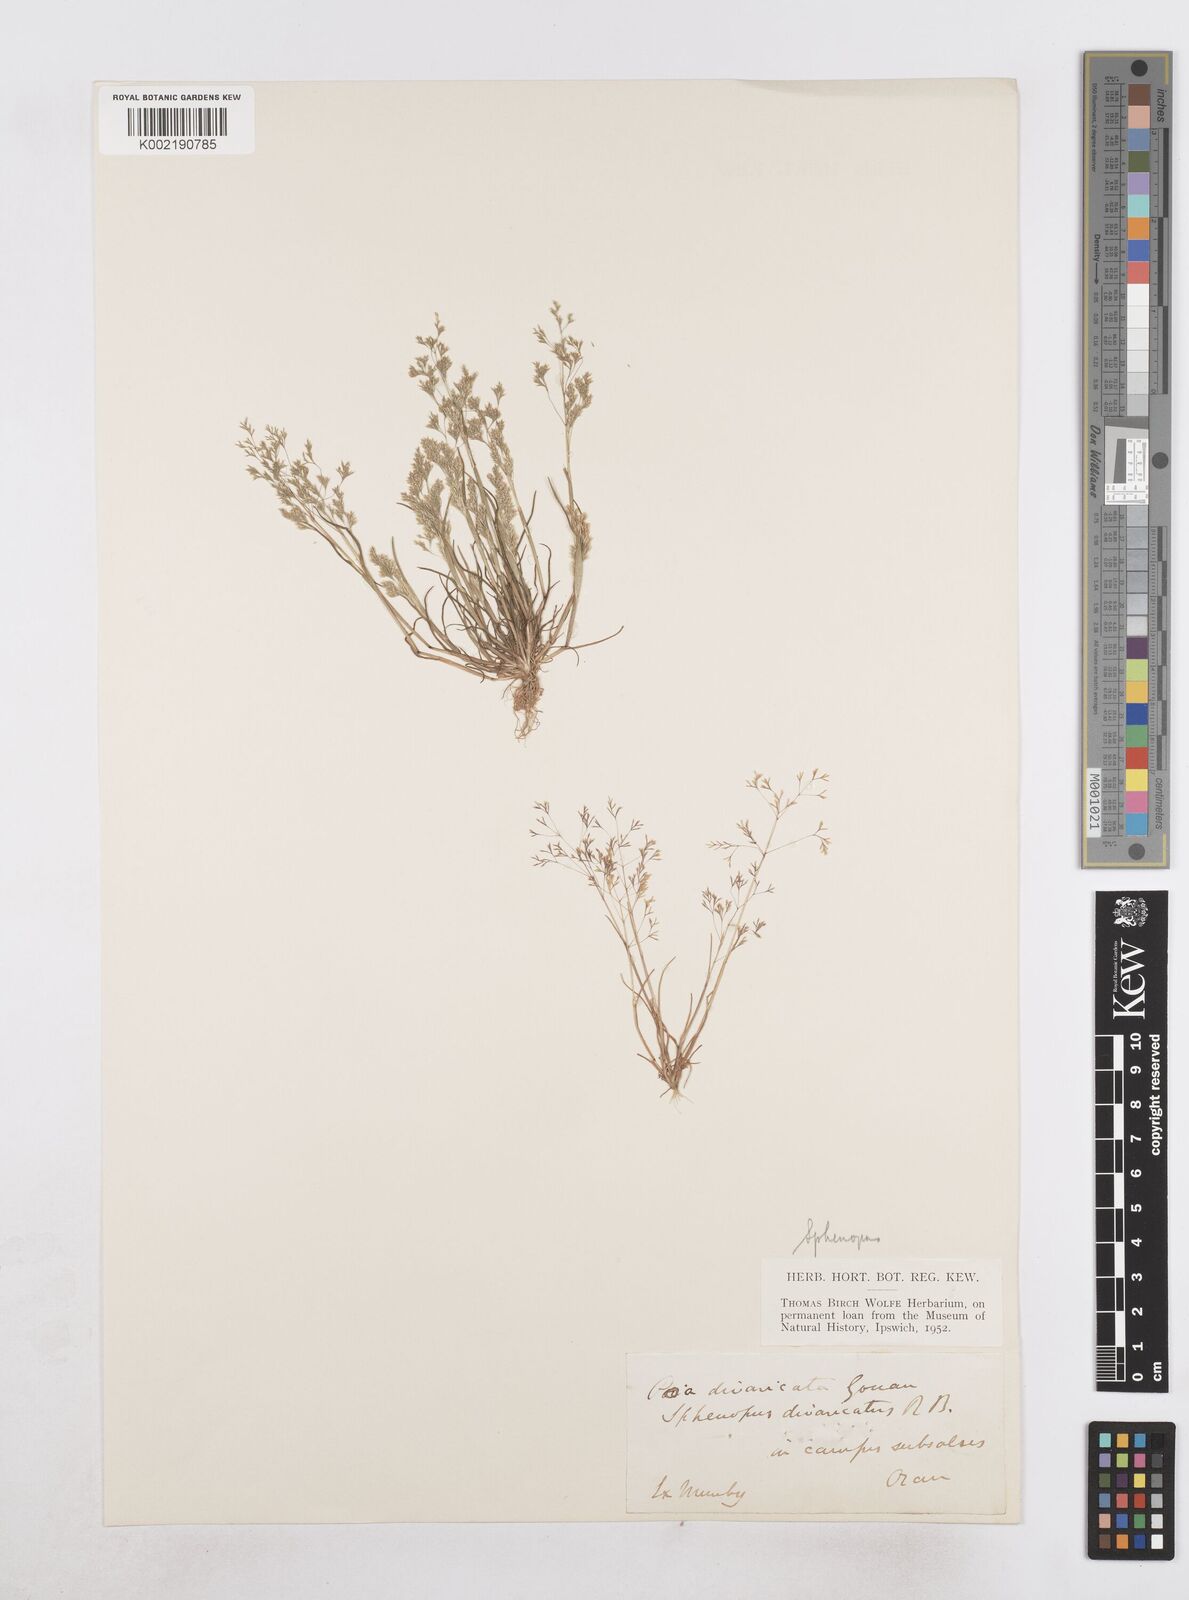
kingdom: Plantae
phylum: Tracheophyta
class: Liliopsida
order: Poales
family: Poaceae
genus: Sphenopus
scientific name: Sphenopus divaricatus
